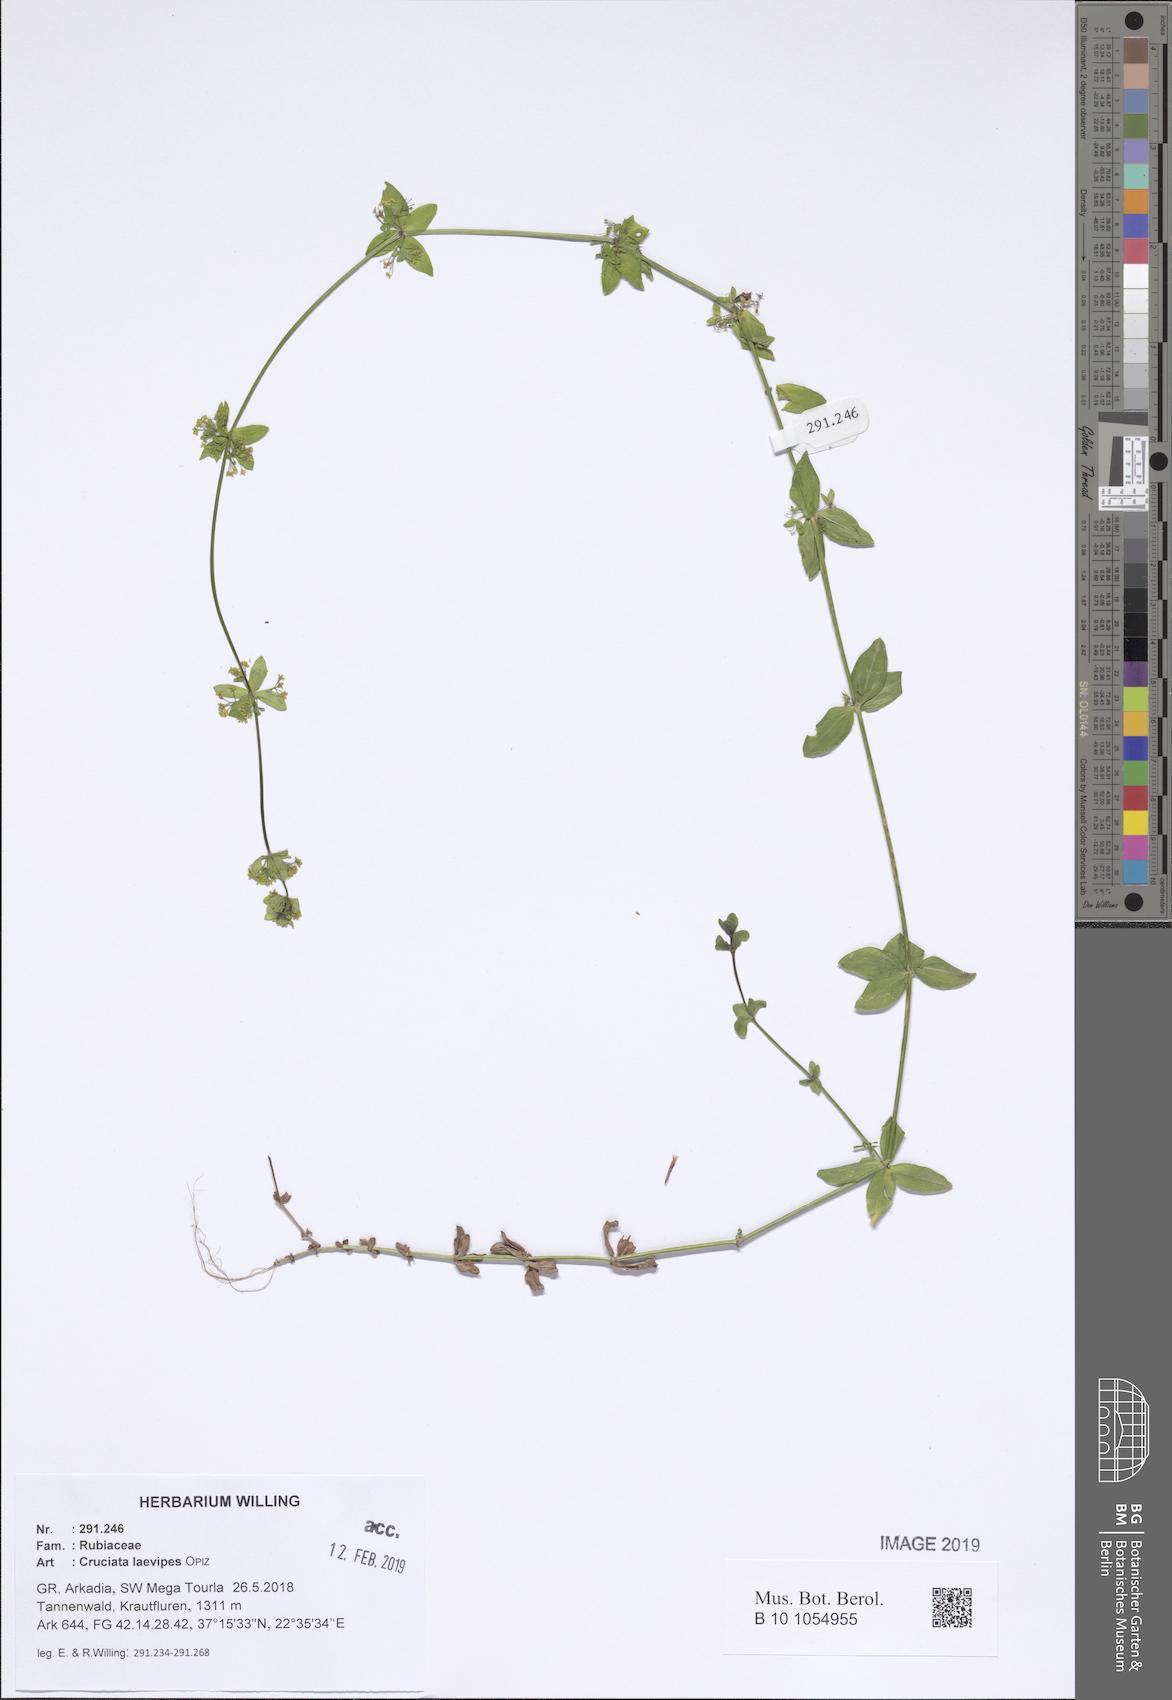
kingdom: Plantae
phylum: Tracheophyta
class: Magnoliopsida
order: Gentianales
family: Rubiaceae
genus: Cruciata
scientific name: Cruciata laevipes
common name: Crosswort
